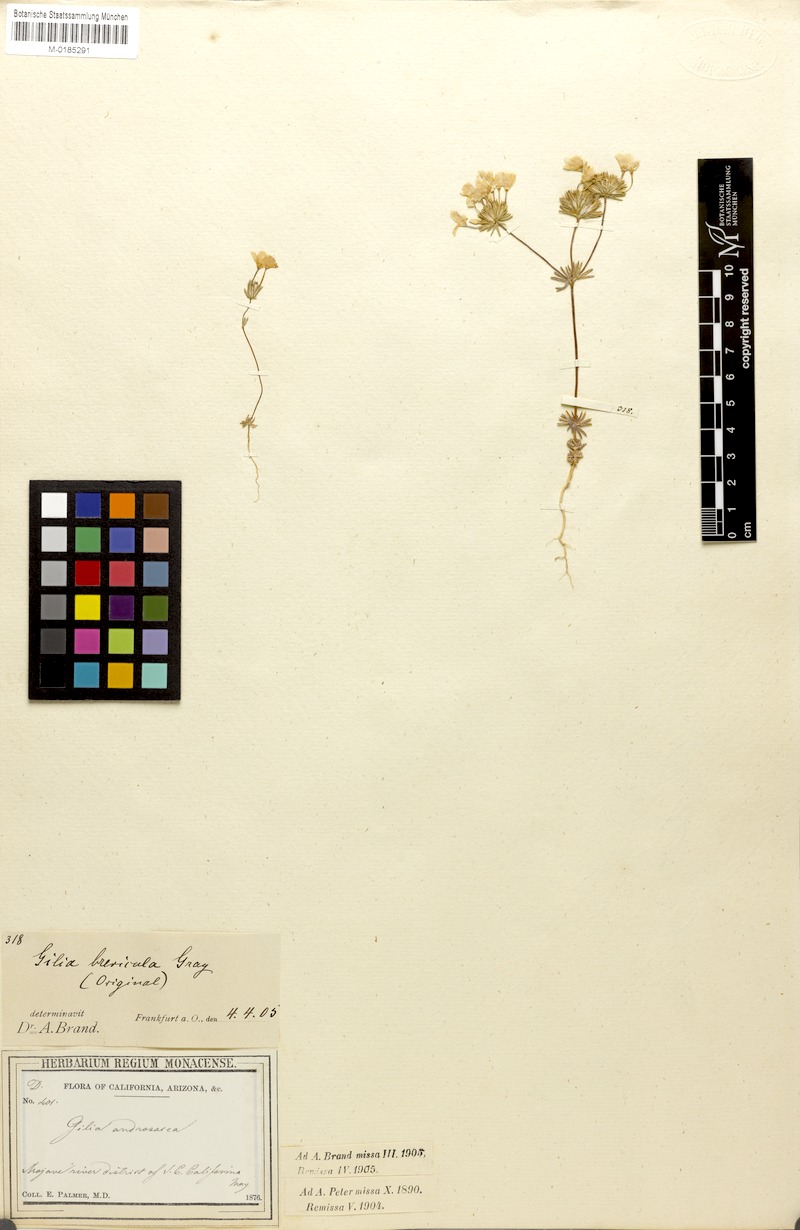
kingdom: Plantae
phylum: Tracheophyta
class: Magnoliopsida
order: Ericales
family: Polemoniaceae
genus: Leptosiphon
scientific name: Leptosiphon breviculus
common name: Mojave linanthus
